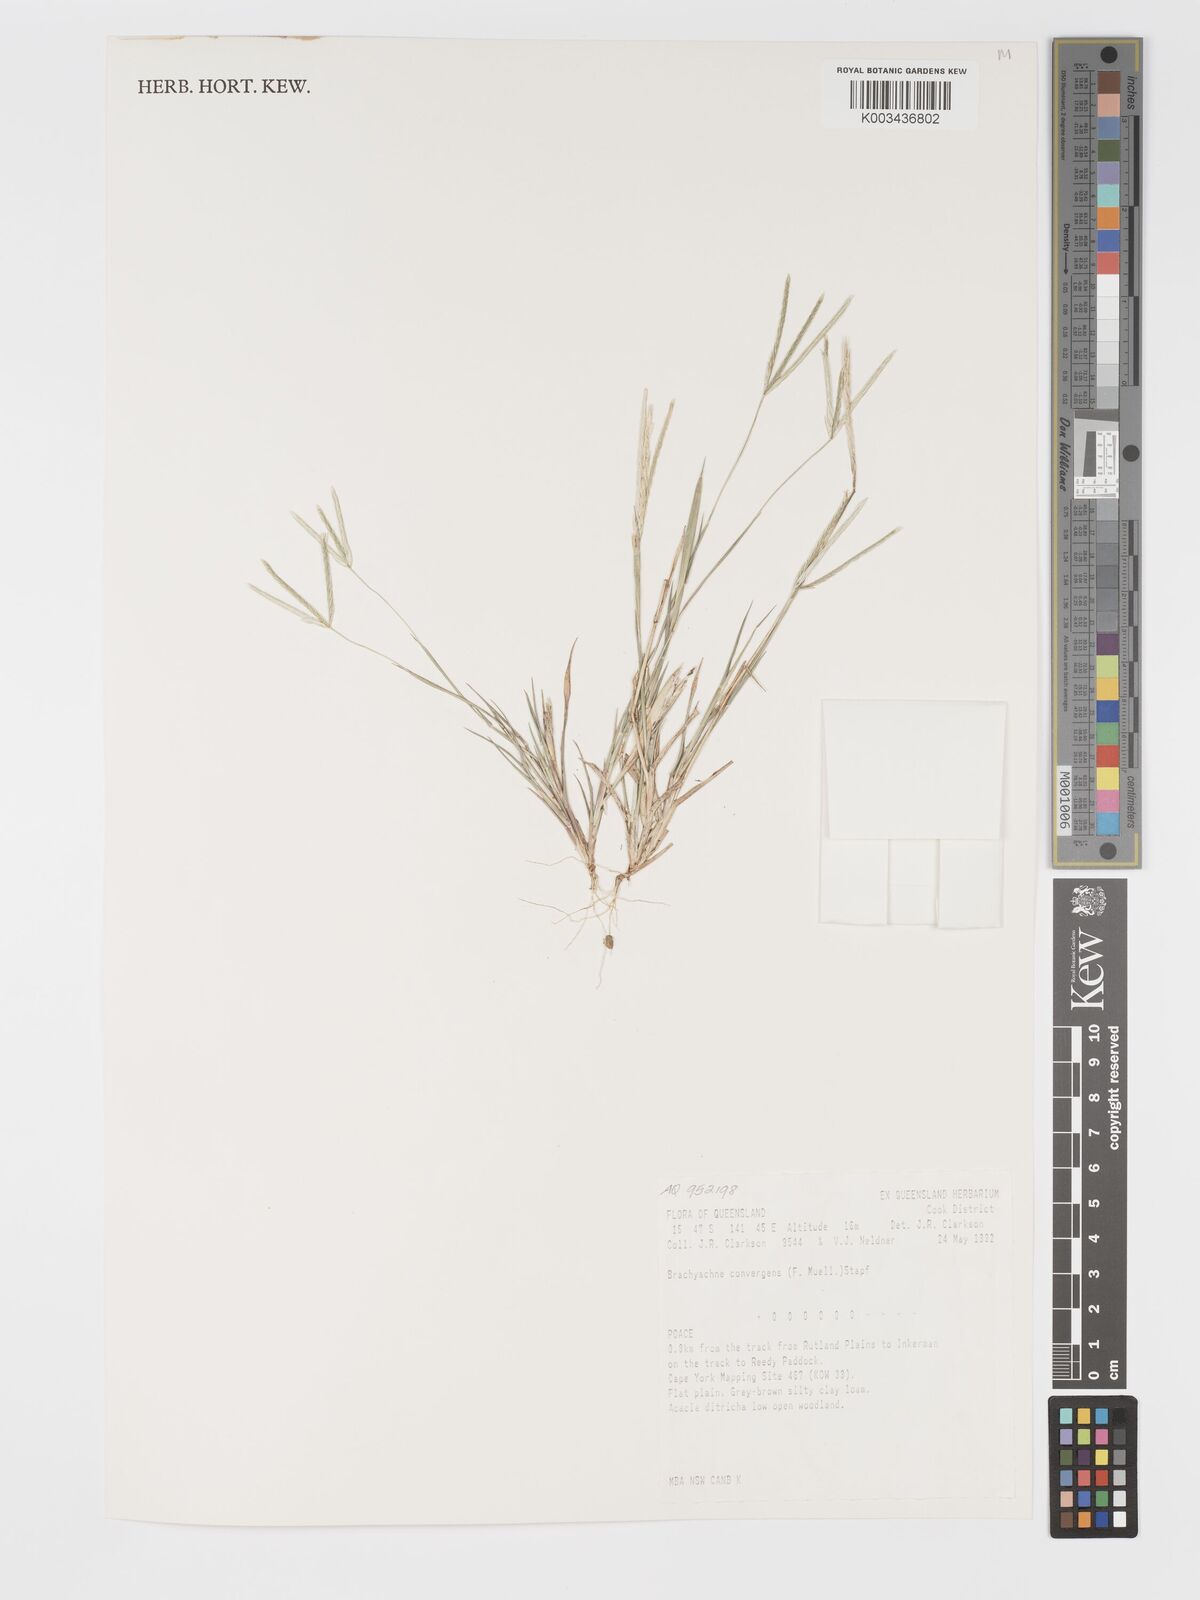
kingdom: Plantae
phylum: Tracheophyta
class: Liliopsida
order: Poales
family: Poaceae
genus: Cynodon
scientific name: Cynodon convergens
